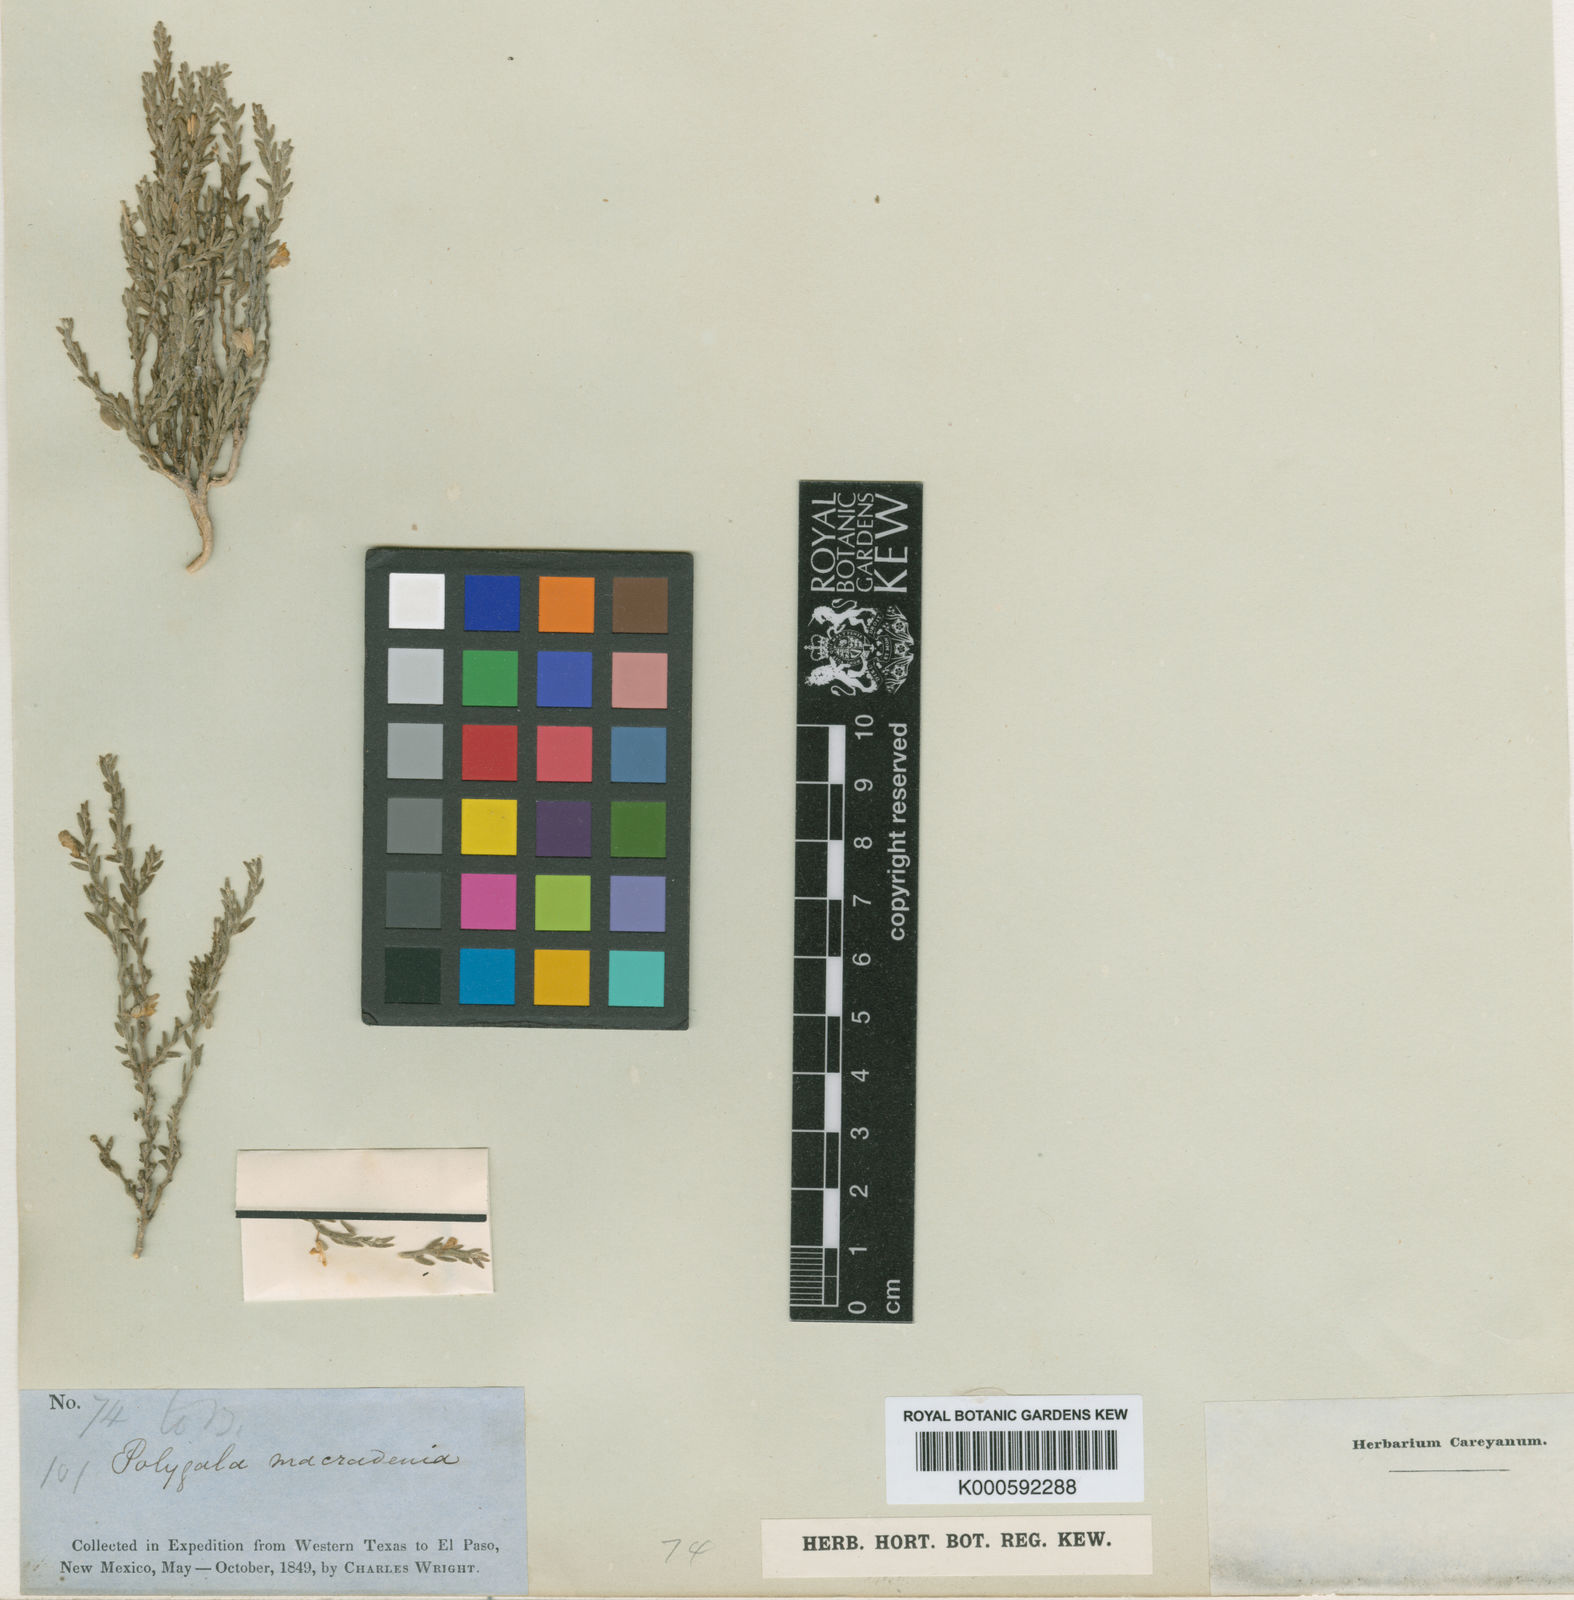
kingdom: Plantae
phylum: Tracheophyta
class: Magnoliopsida
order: Fabales
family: Polygalaceae
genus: Hebecarpa
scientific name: Hebecarpa macradenia
